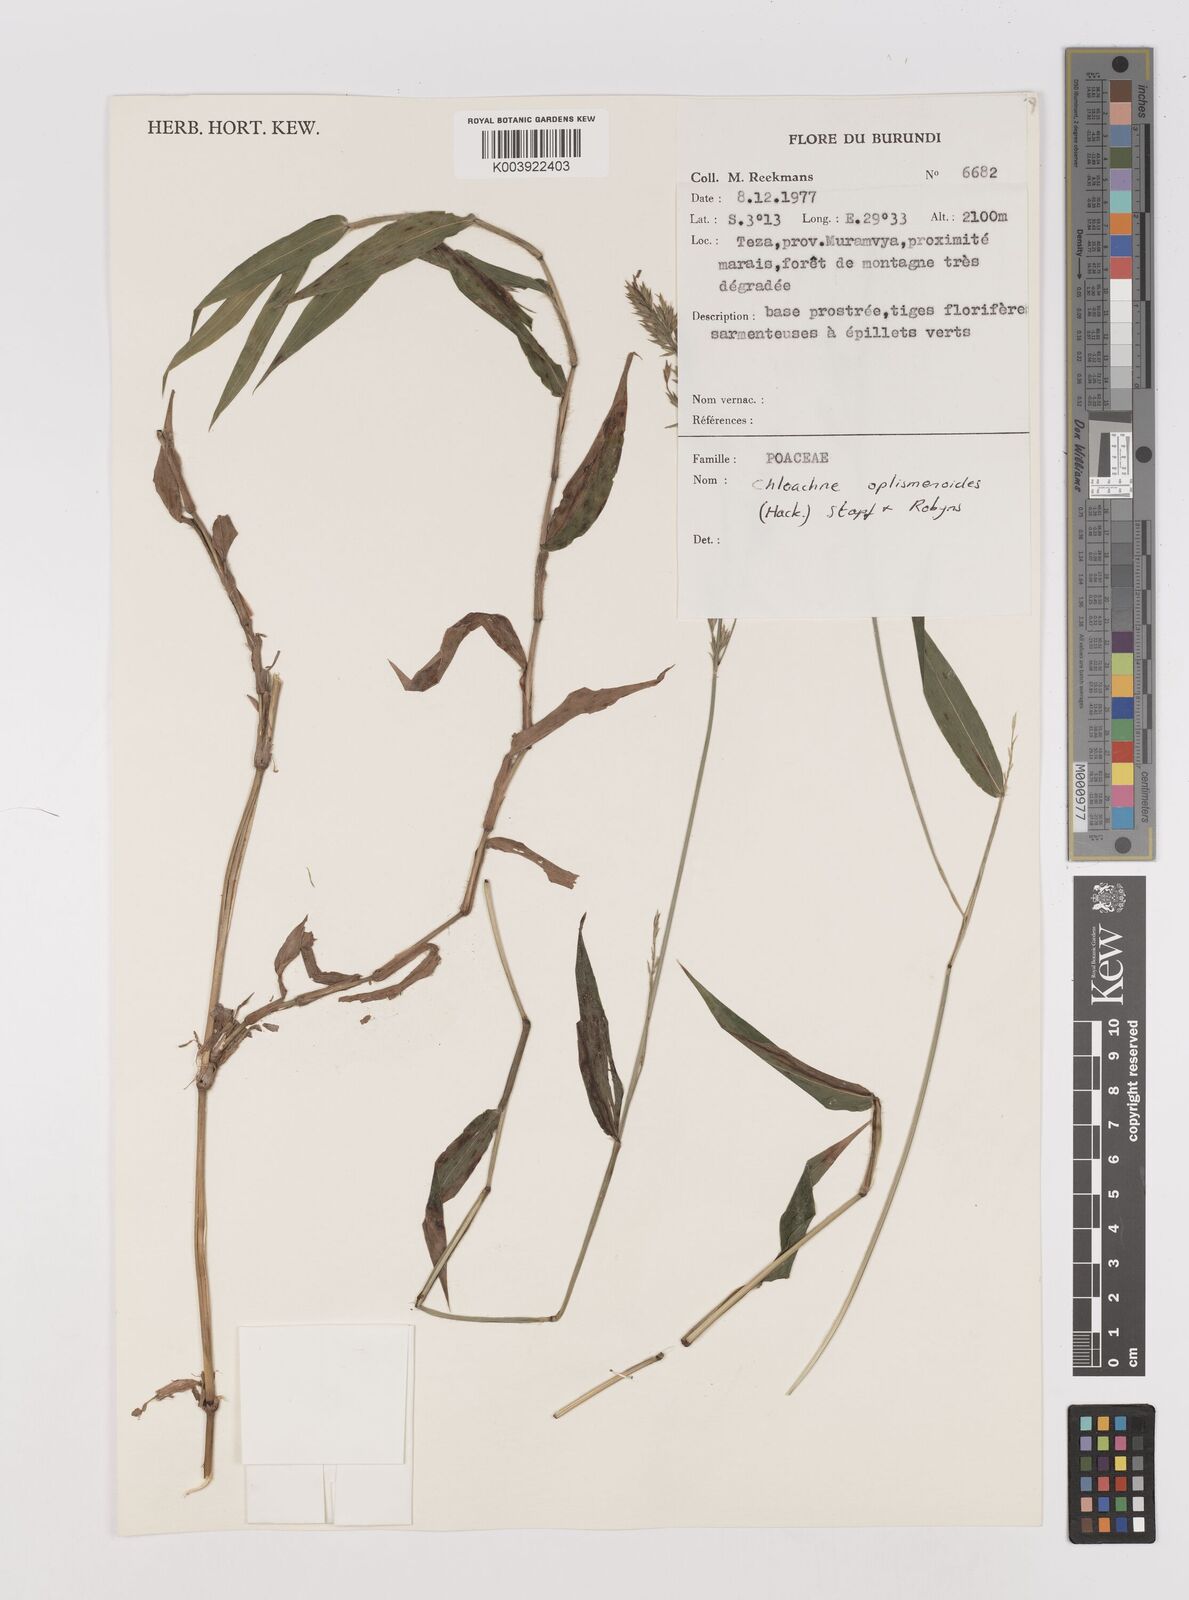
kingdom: Plantae
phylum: Tracheophyta
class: Liliopsida
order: Poales
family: Poaceae
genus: Poecilostachys
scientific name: Poecilostachys oplismenoides
